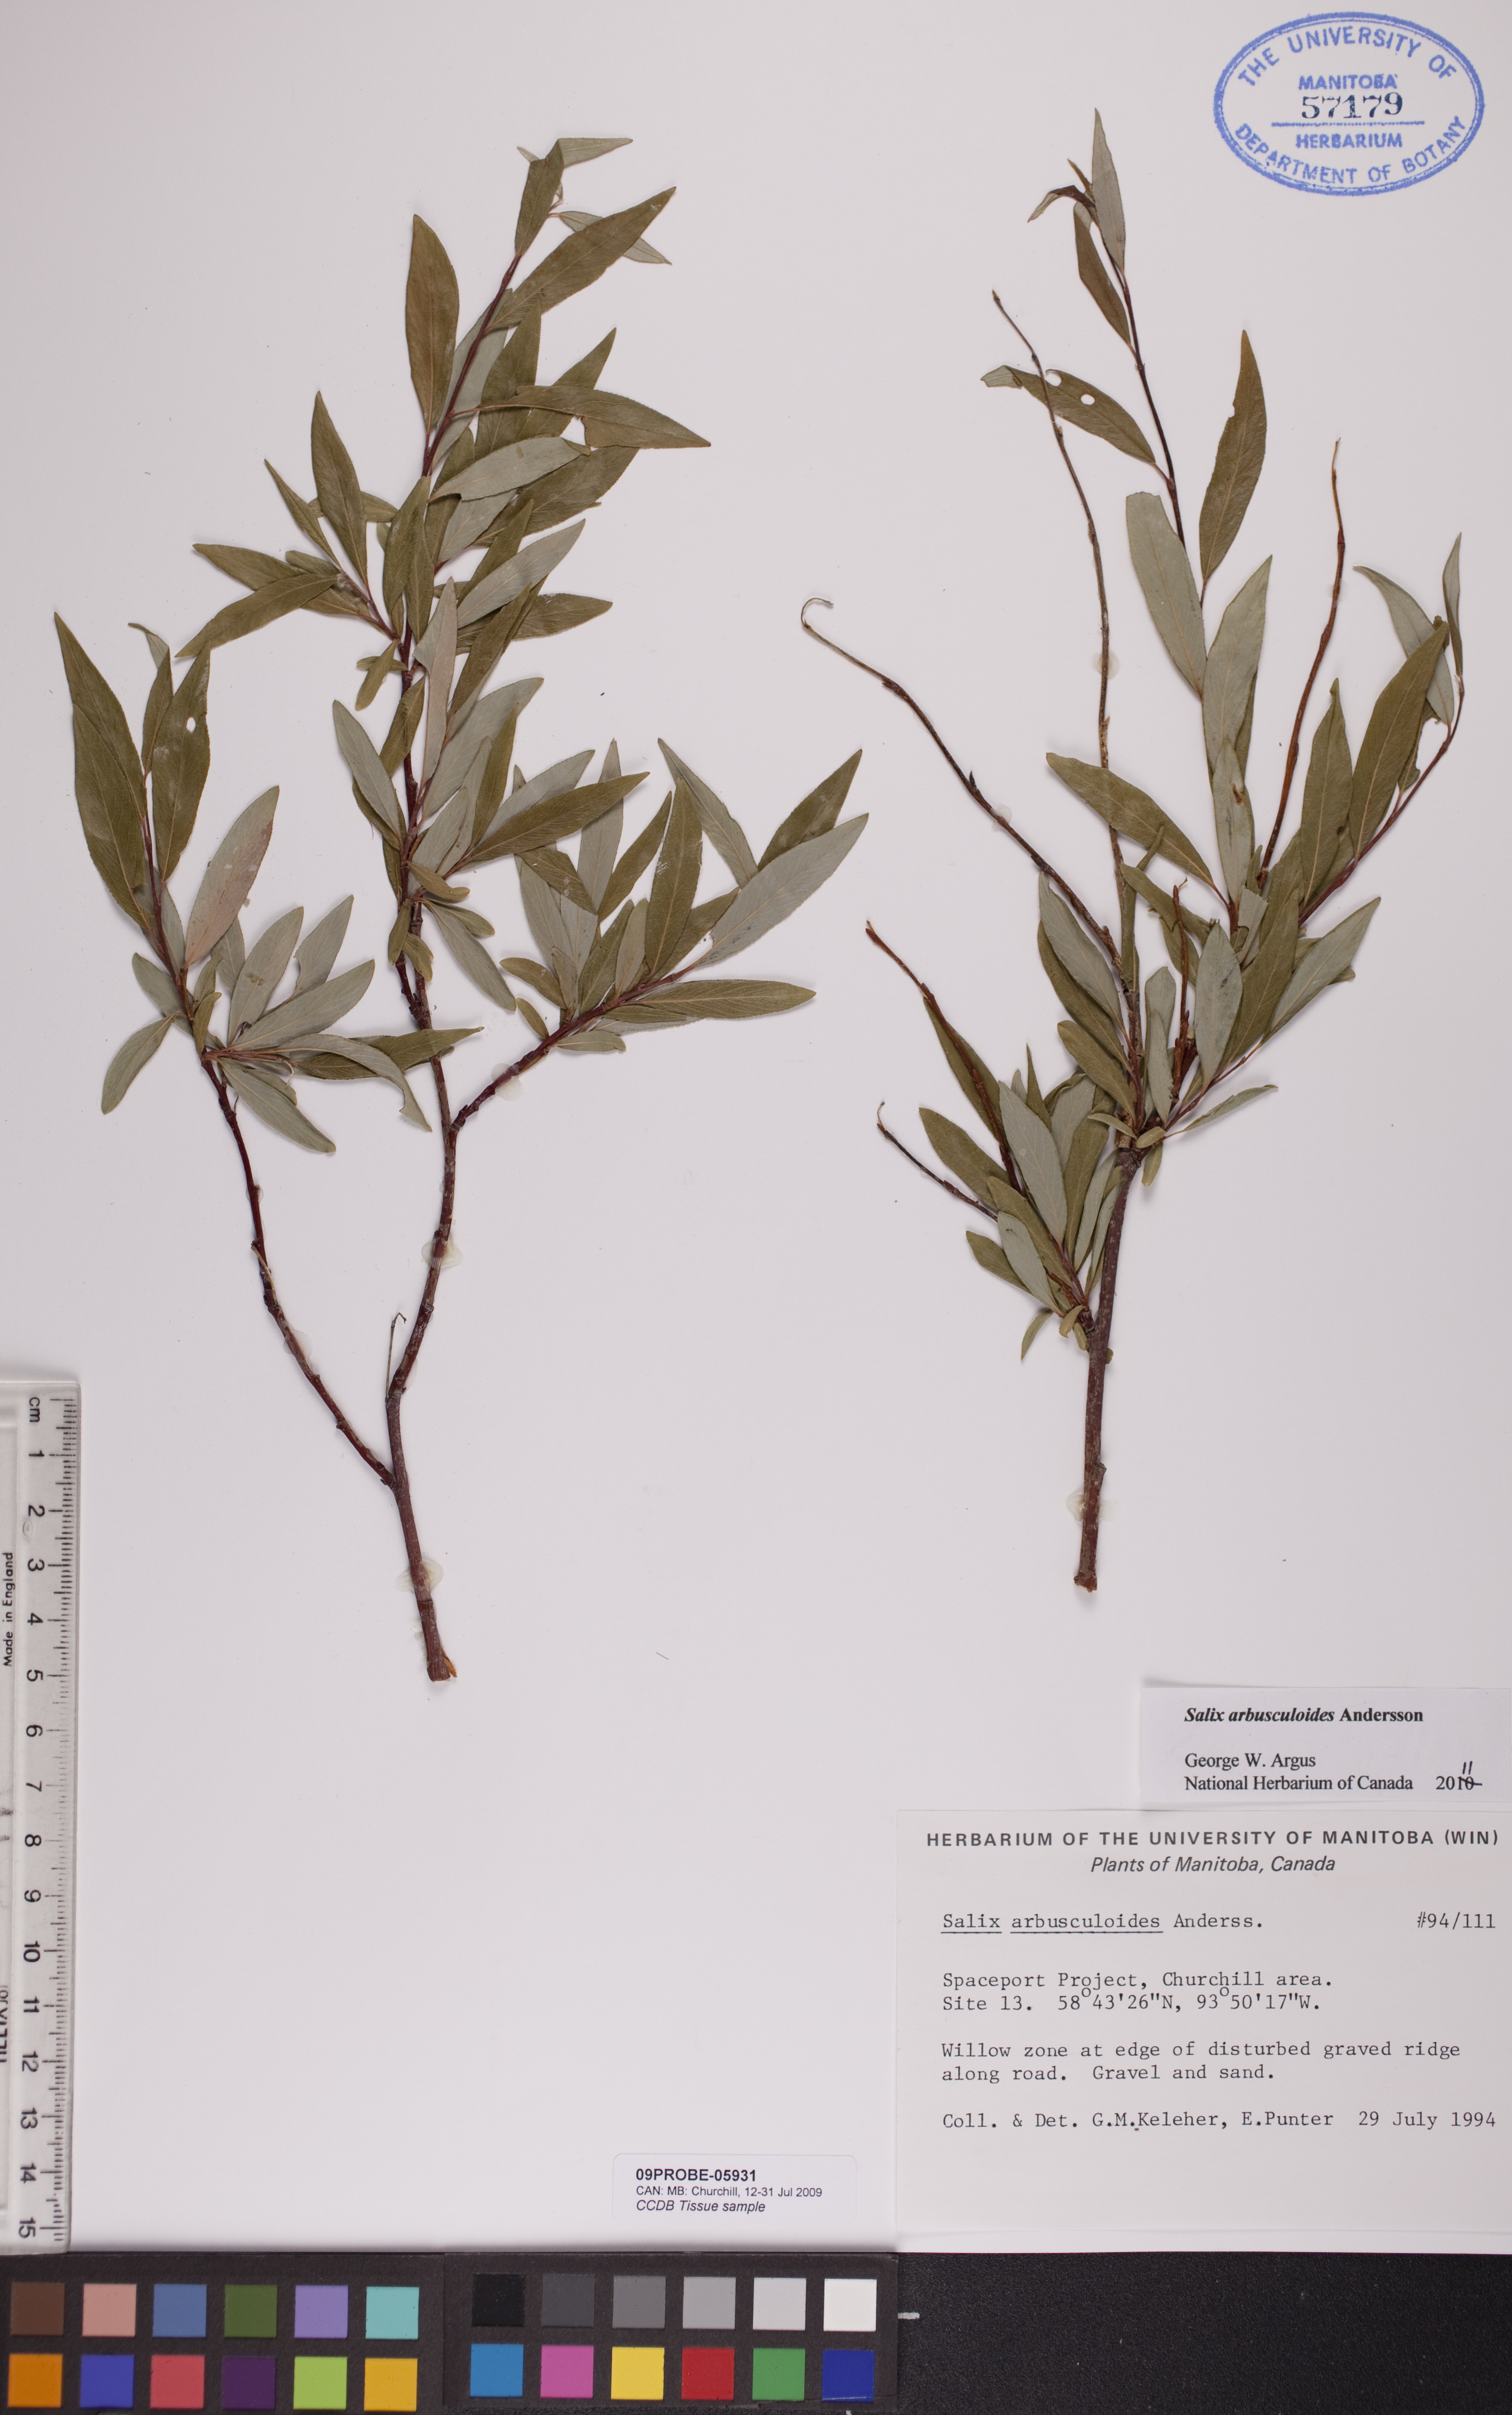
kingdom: Plantae
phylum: Tracheophyta
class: Magnoliopsida
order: Malpighiales
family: Salicaceae
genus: Salix
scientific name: Salix arbusculoides
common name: Little-tree willow
